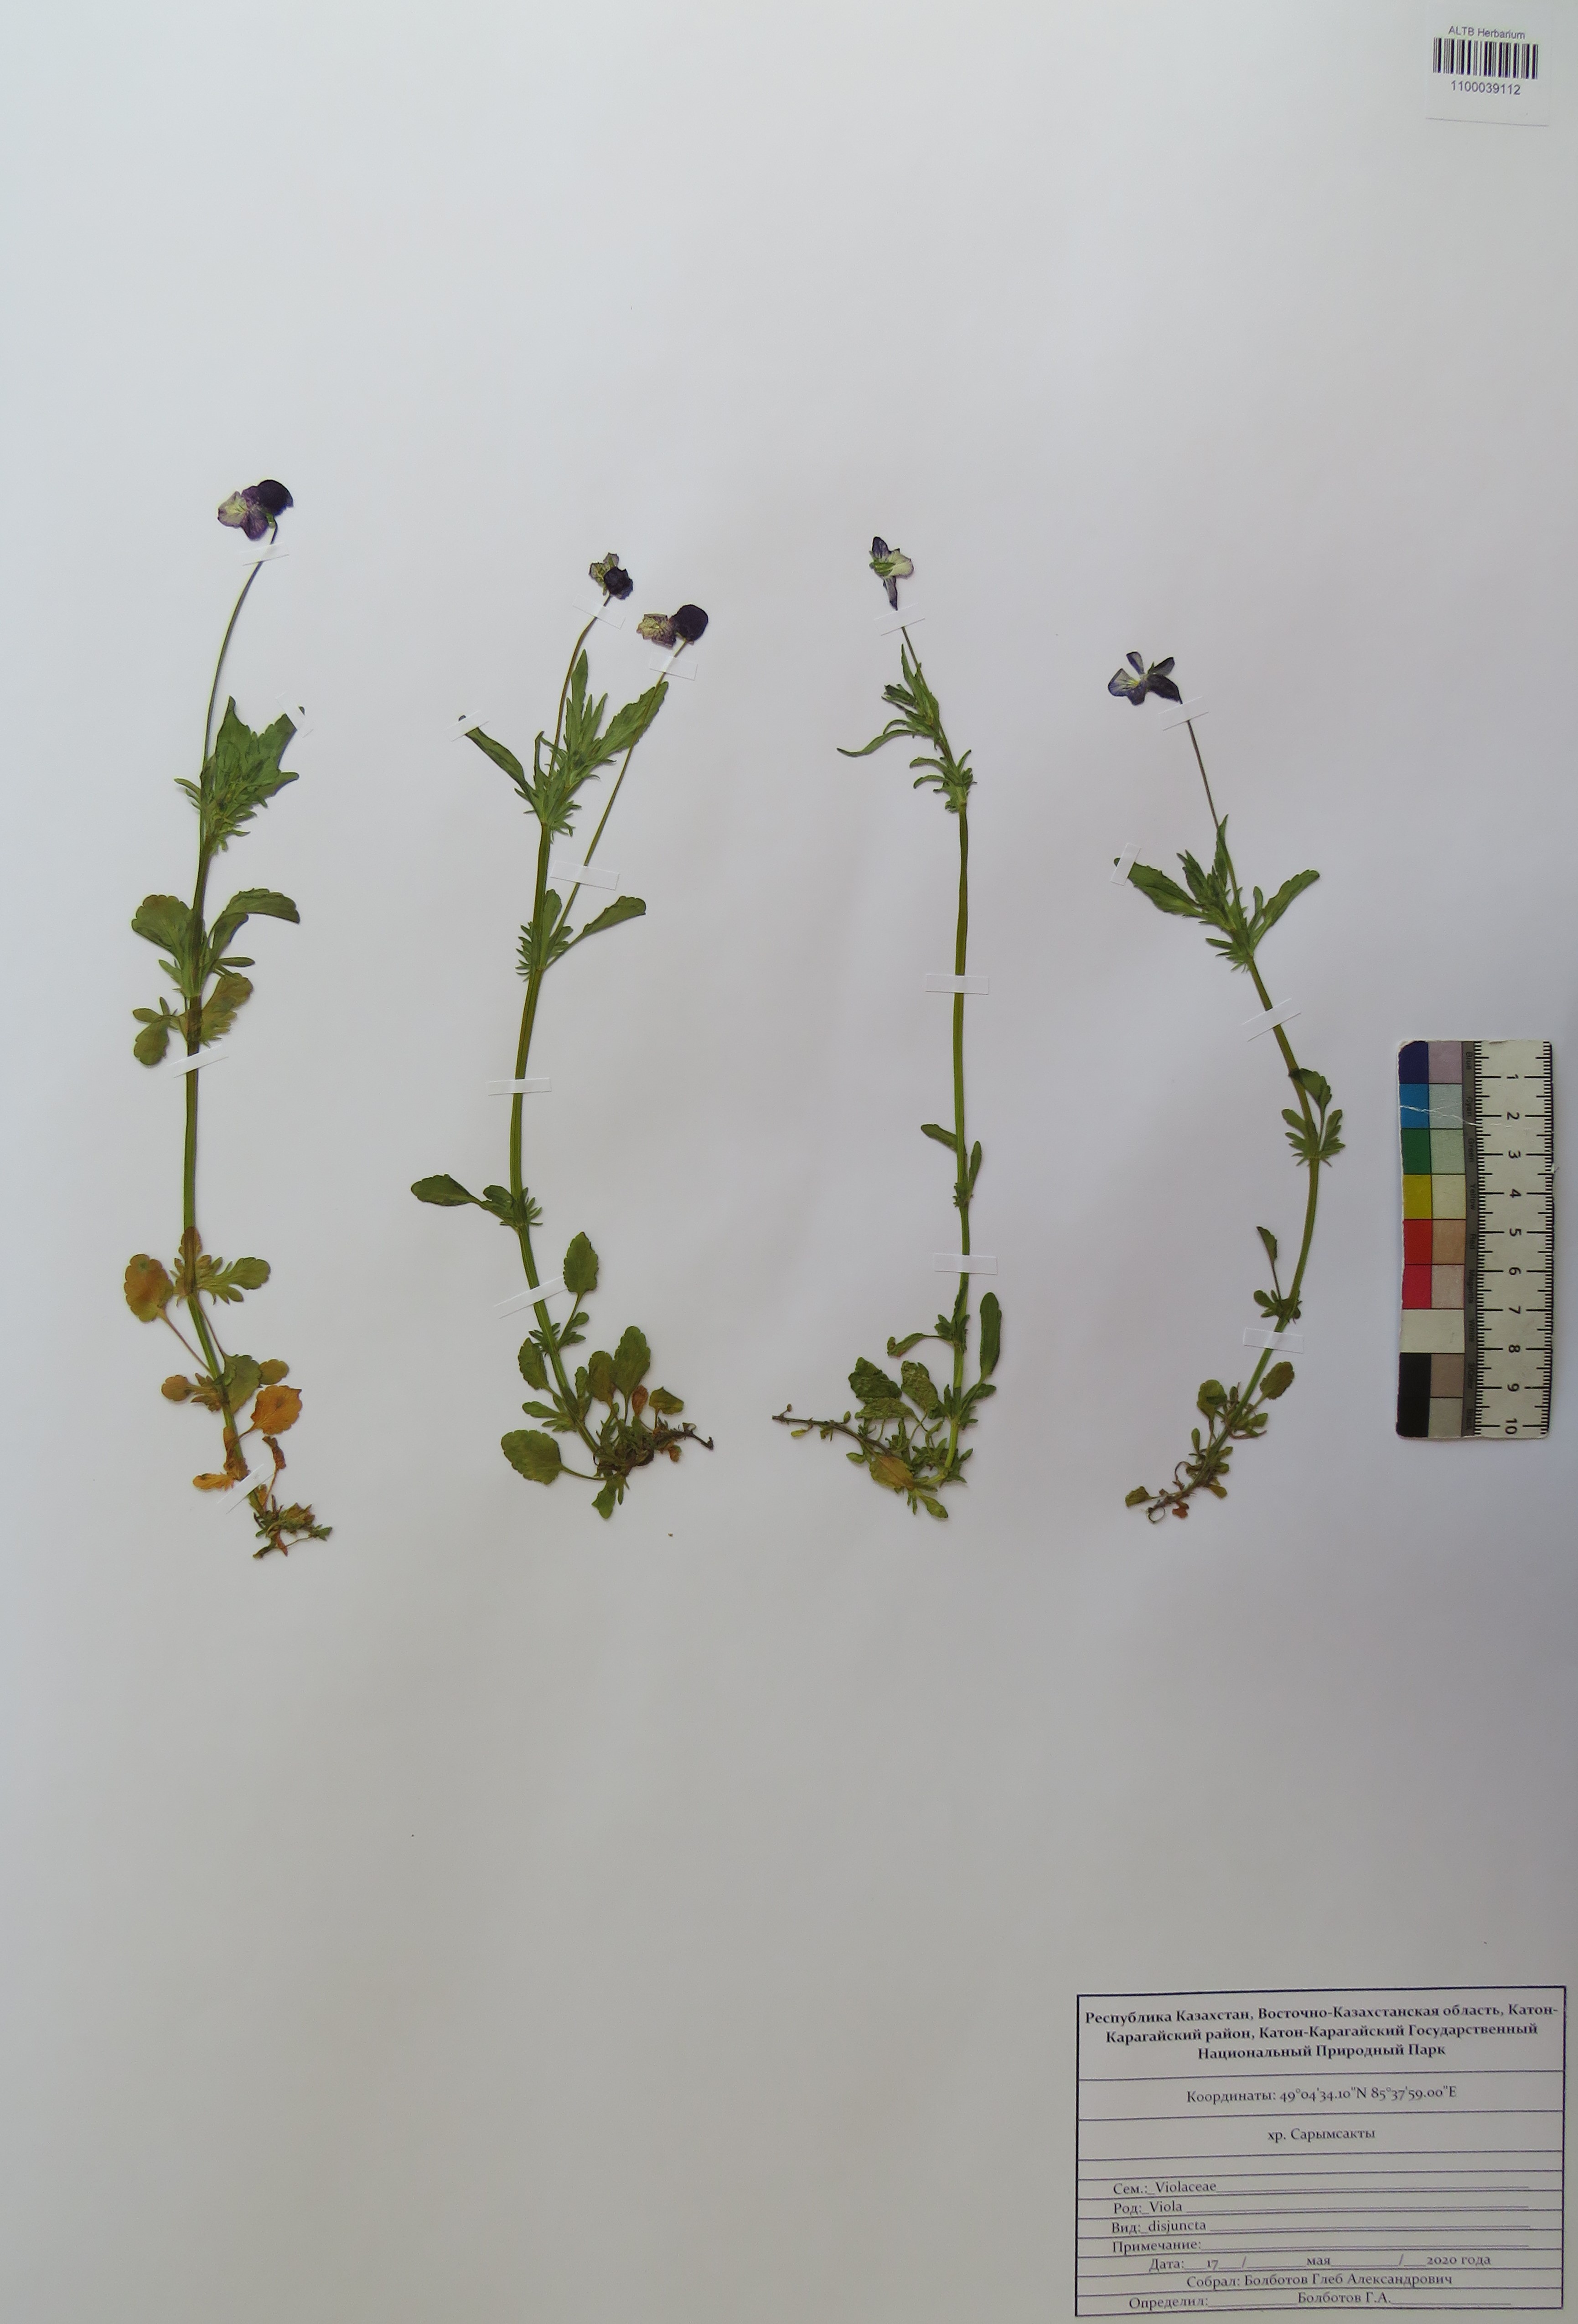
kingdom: Plantae
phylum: Tracheophyta
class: Magnoliopsida
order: Malpighiales
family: Violaceae
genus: Viola
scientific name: Viola tricolor
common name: Pansy
